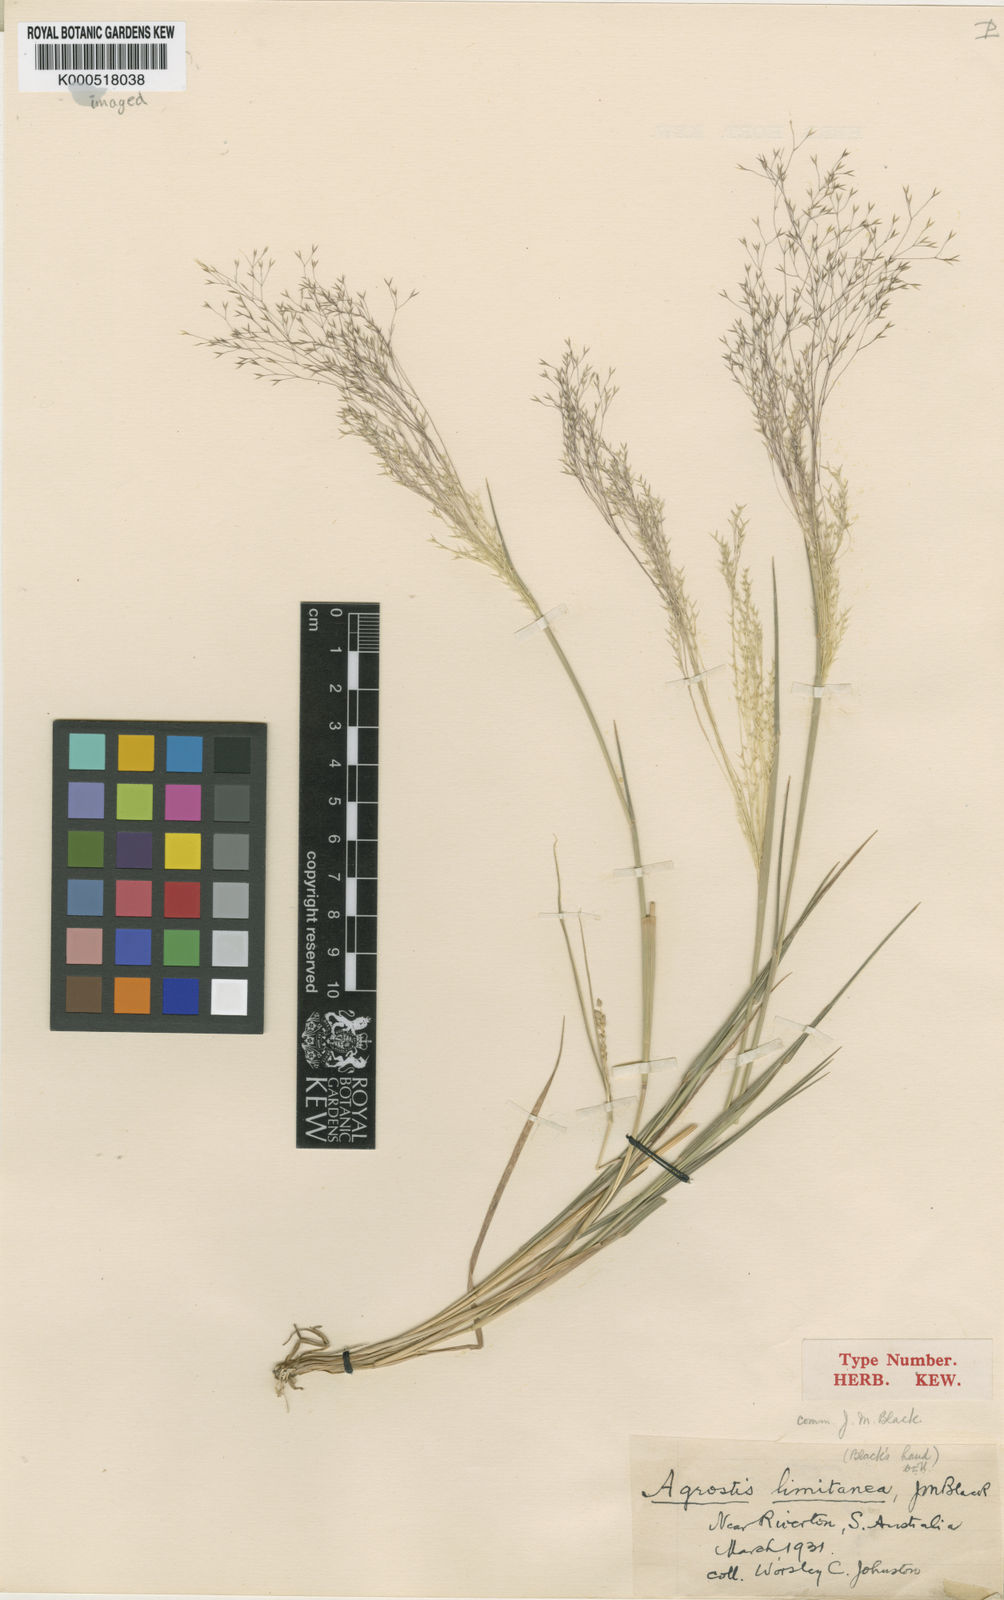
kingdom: Plantae
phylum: Tracheophyta
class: Liliopsida
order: Poales
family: Poaceae
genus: Lachnagrostis
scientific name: Lachnagrostis limitanea
